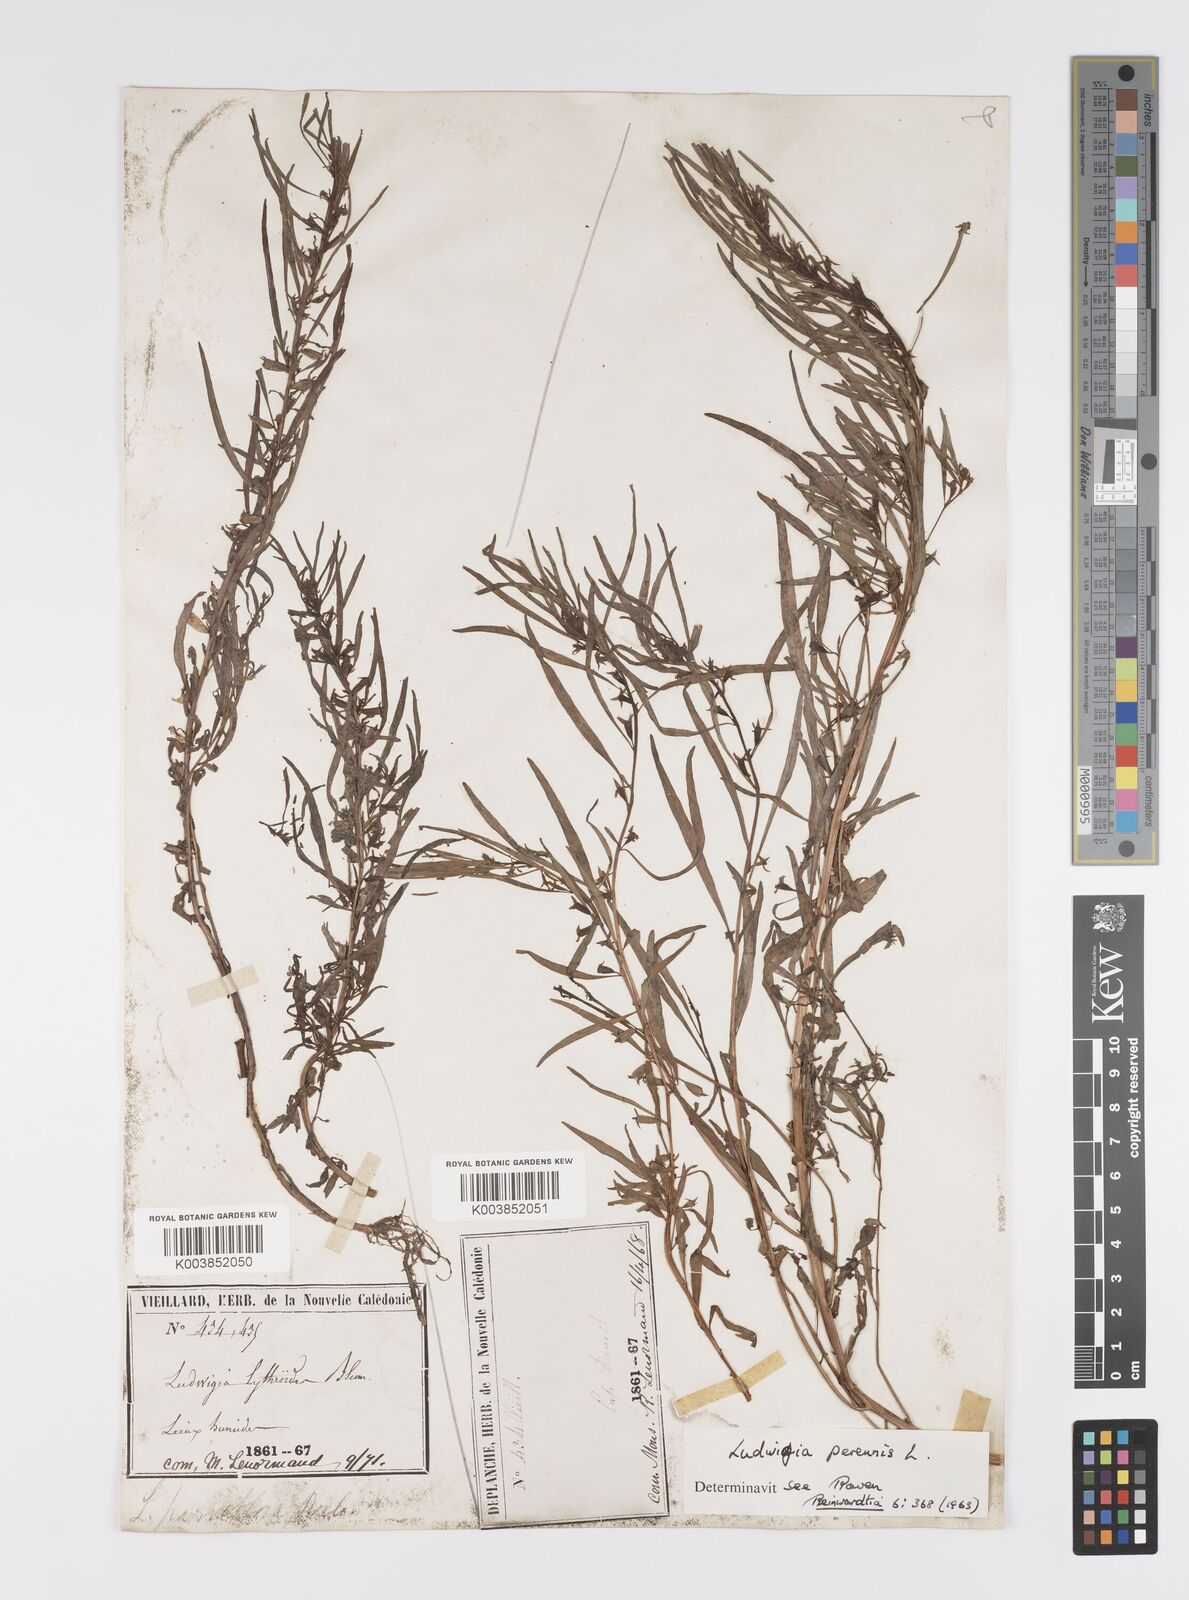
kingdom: Plantae
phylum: Tracheophyta
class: Magnoliopsida
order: Myrtales
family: Onagraceae
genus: Ludwigia
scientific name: Ludwigia perennis
